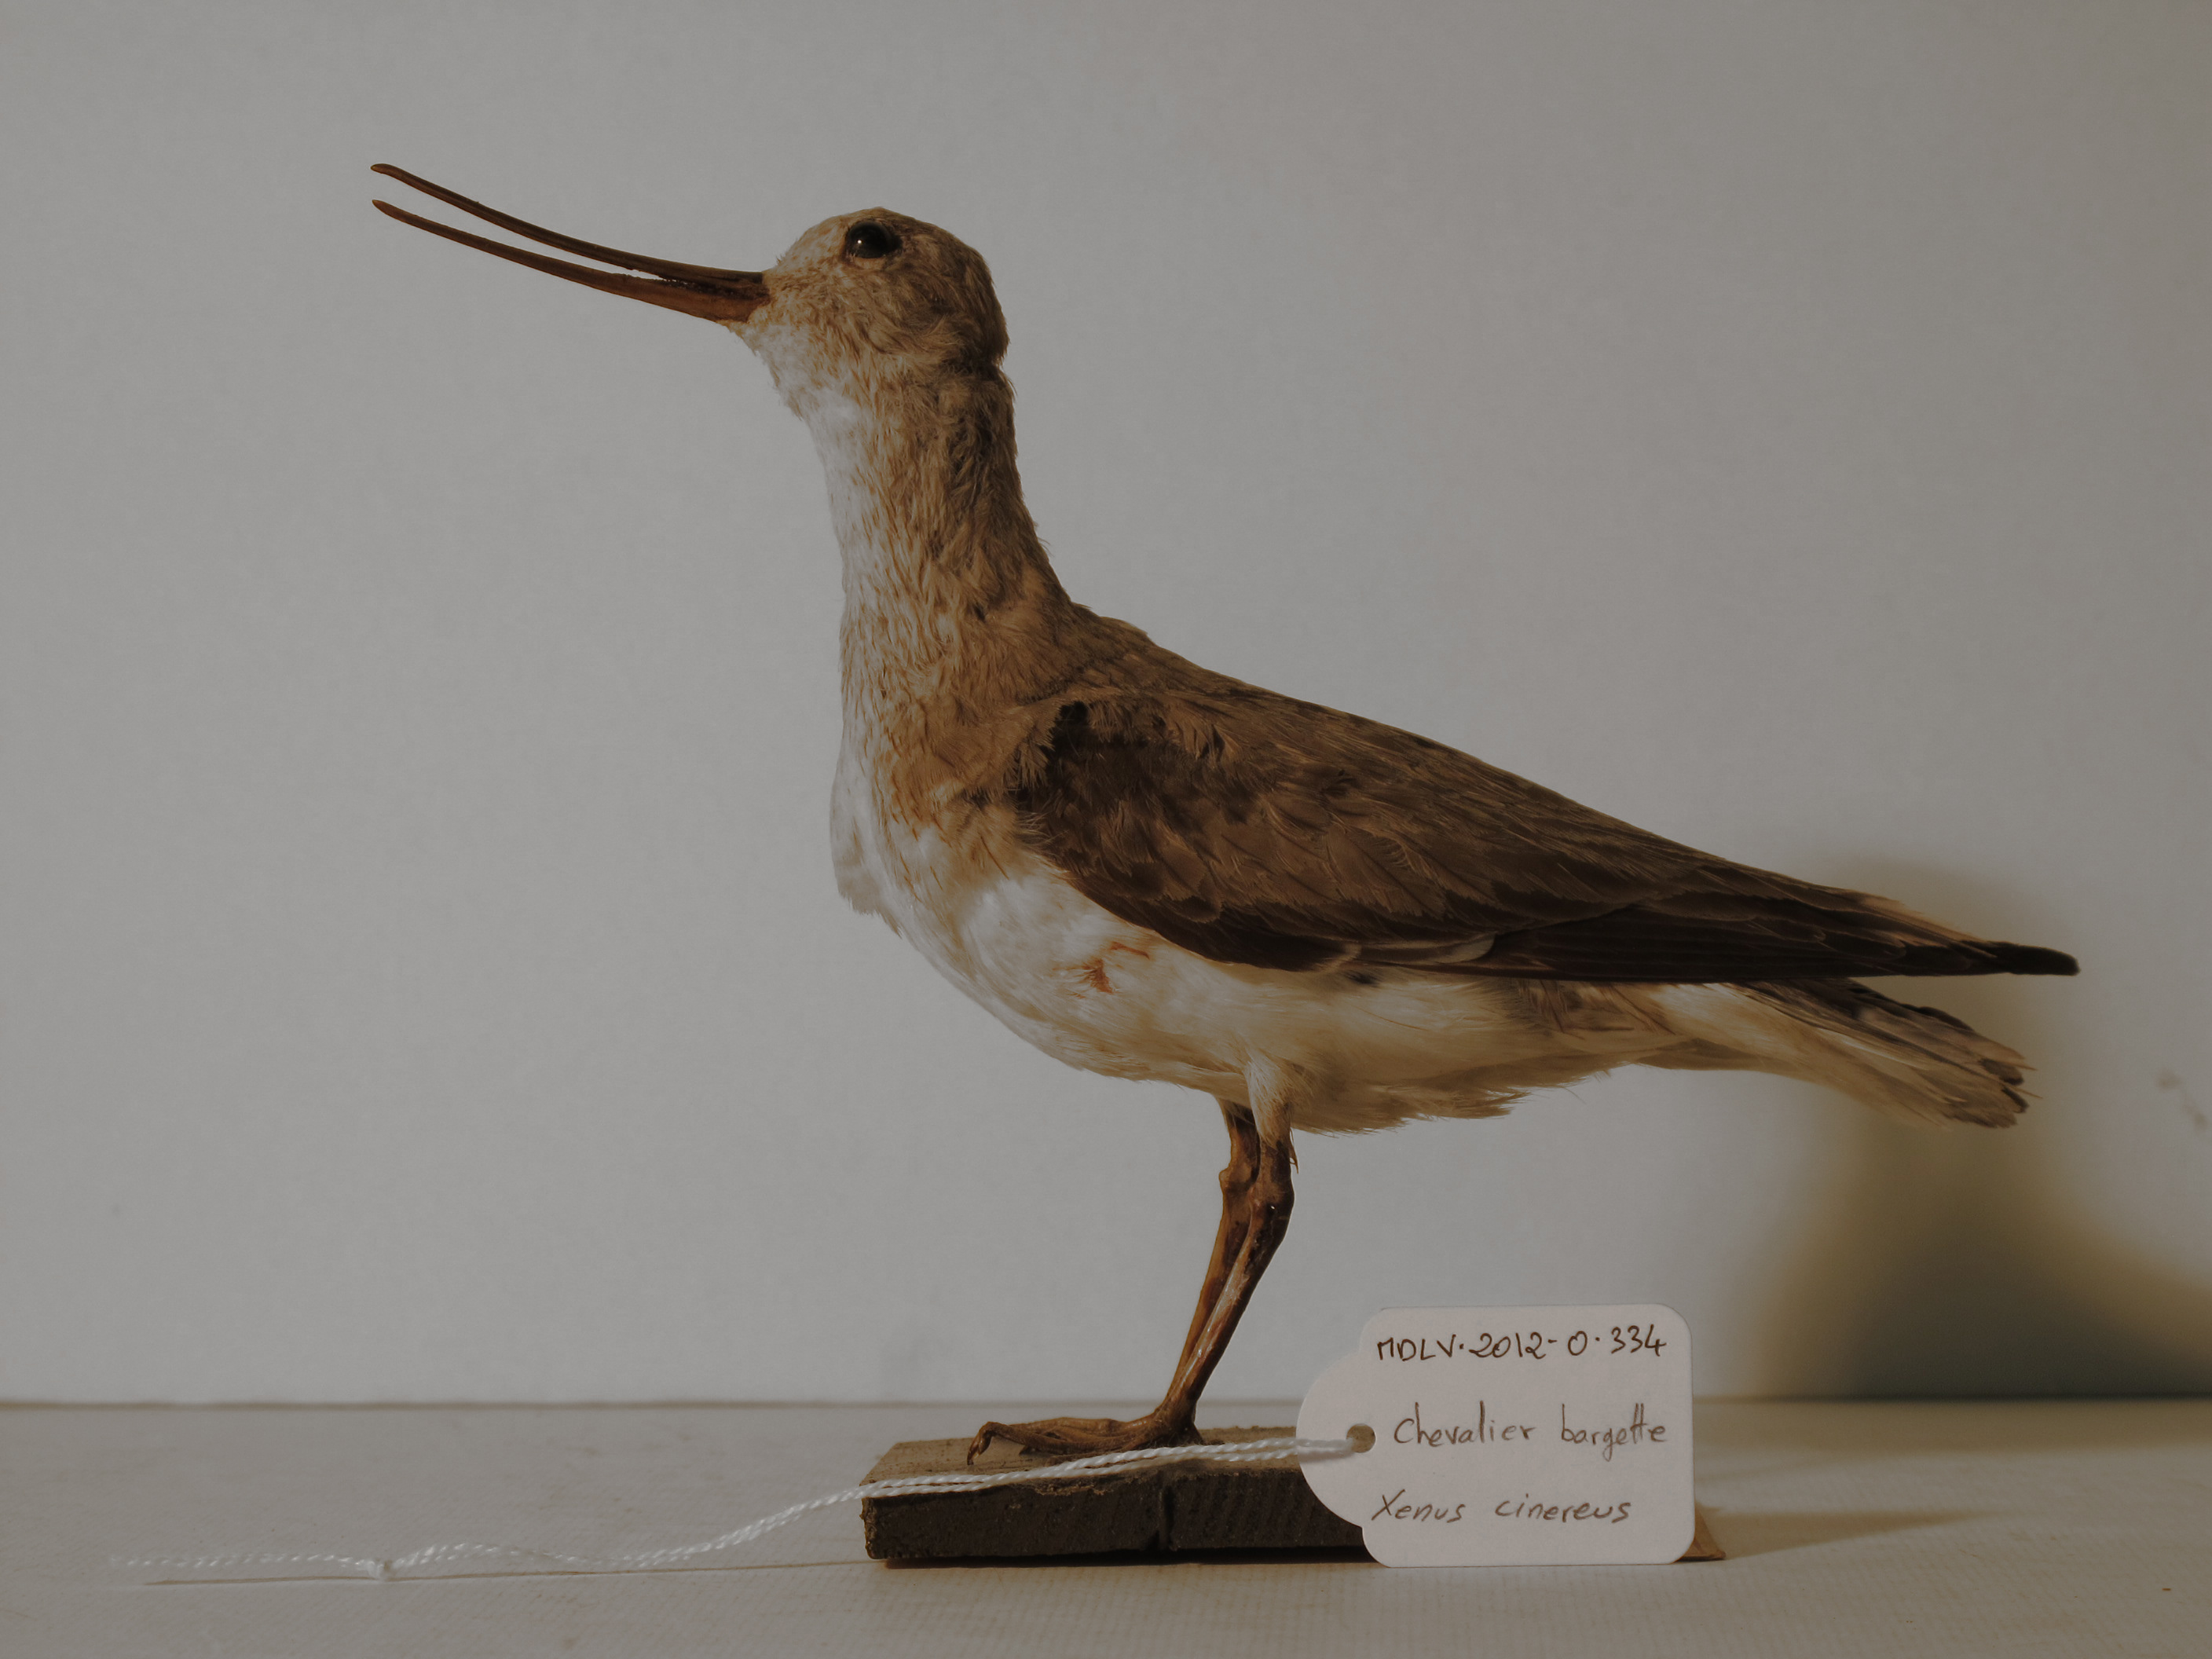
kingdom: Animalia
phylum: Chordata
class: Aves
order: Charadriiformes
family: Scolopacidae
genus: Xenus
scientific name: Xenus cinereus
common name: Terek Sandpiper
